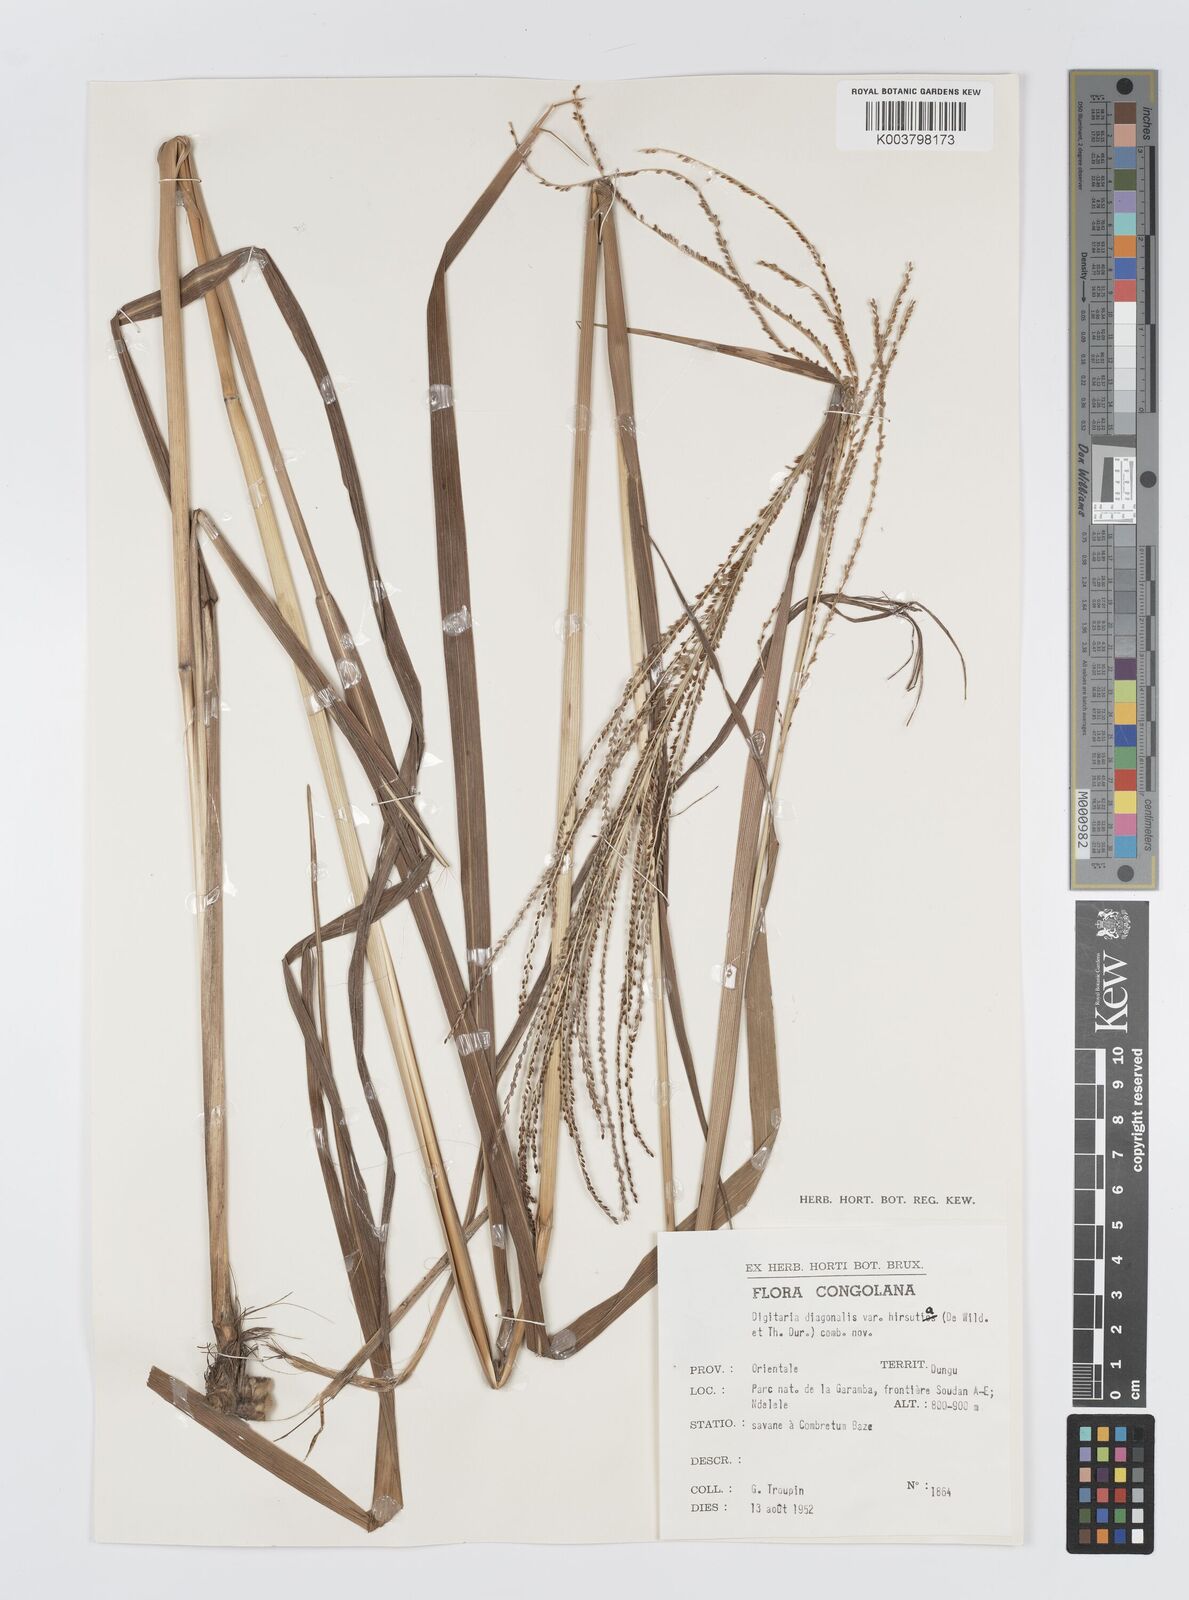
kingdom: Plantae
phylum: Tracheophyta
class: Liliopsida
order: Poales
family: Poaceae
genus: Digitaria
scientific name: Digitaria diagonalis
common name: Brown-seed finger grass
